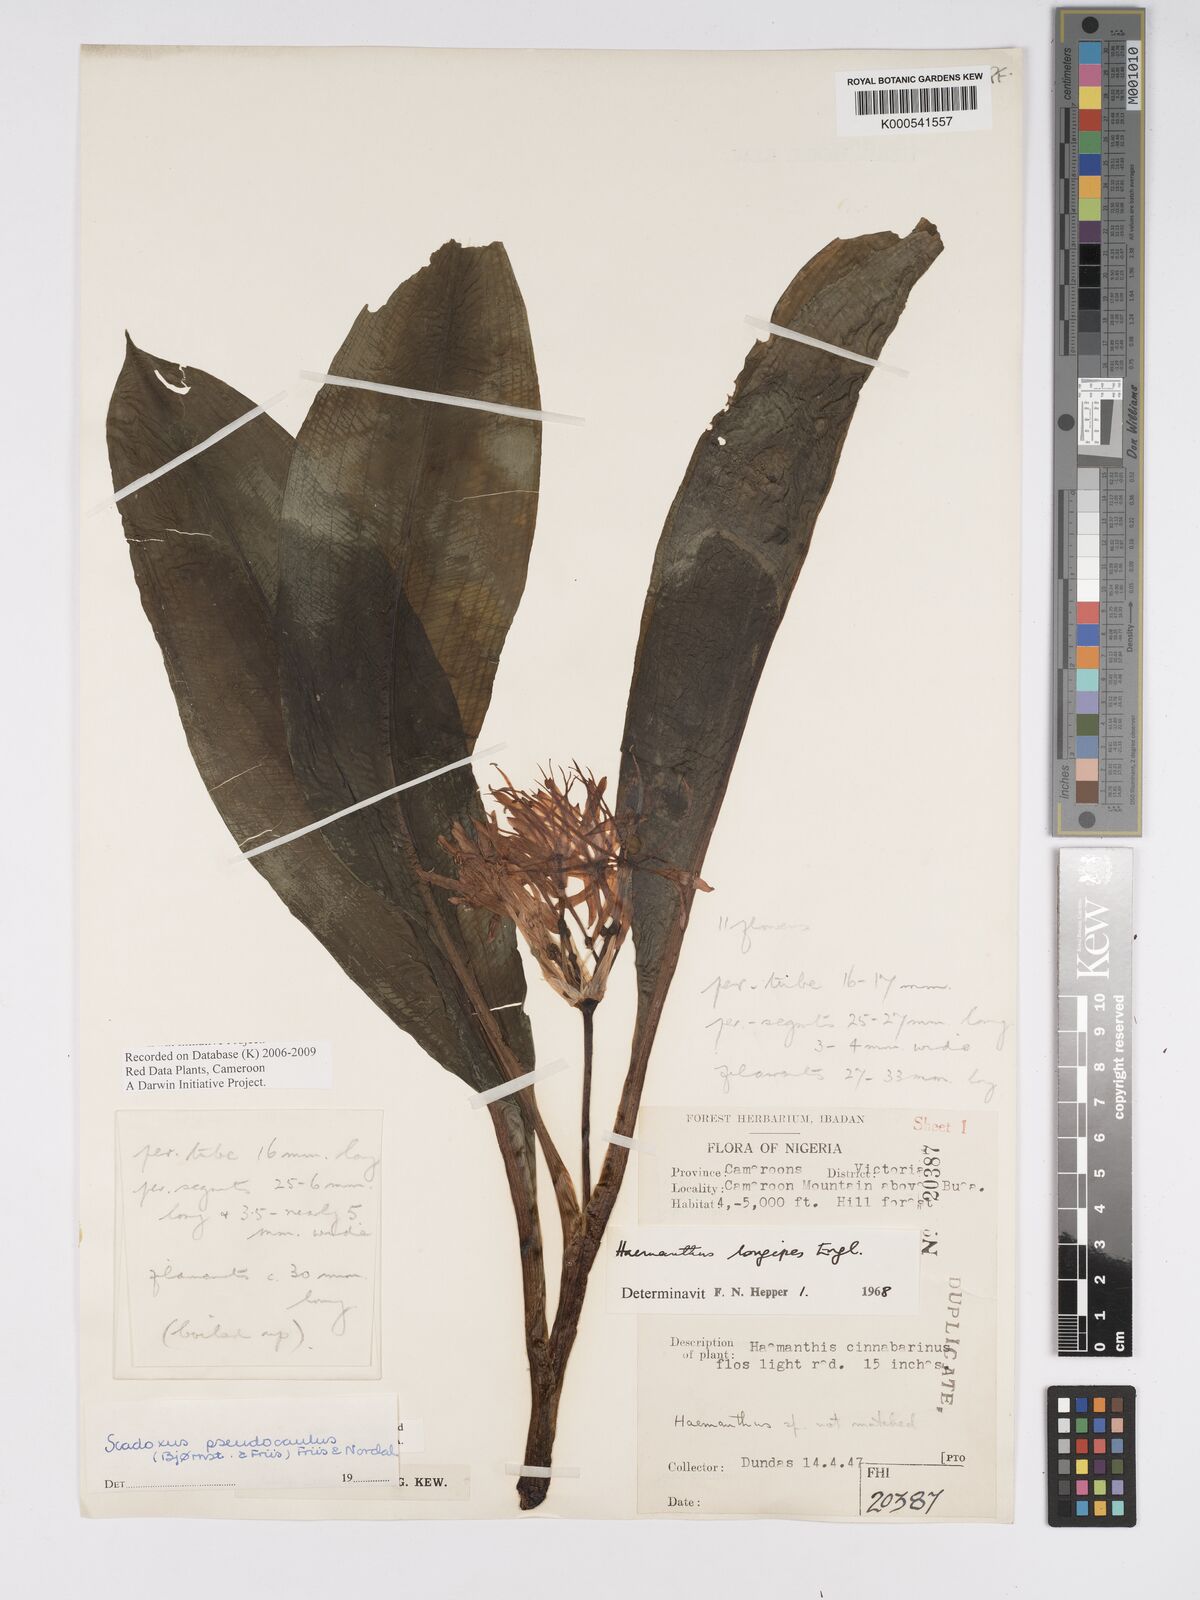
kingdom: Plantae
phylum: Tracheophyta
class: Liliopsida
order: Asparagales
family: Amaryllidaceae
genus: Scadoxus
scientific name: Scadoxus pseudocaulus
